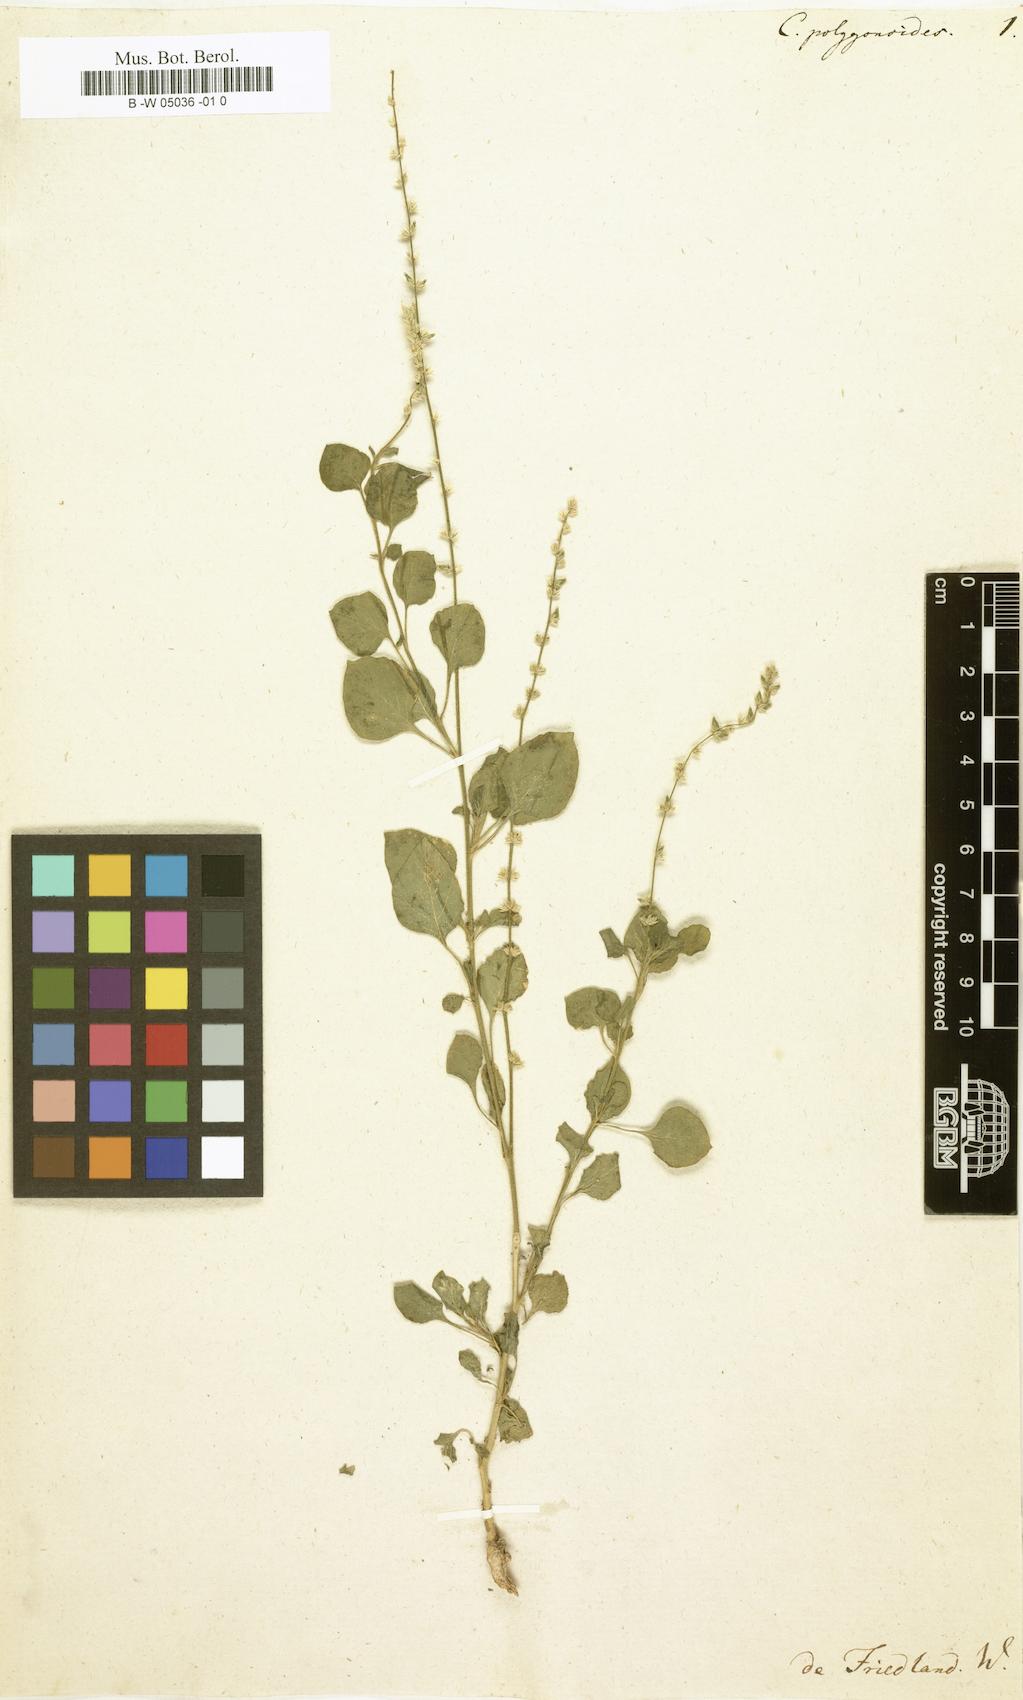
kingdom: Plantae
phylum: Tracheophyta
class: Magnoliopsida
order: Caryophyllales
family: Amaranthaceae
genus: Celosia
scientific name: Celosia polygonoides
